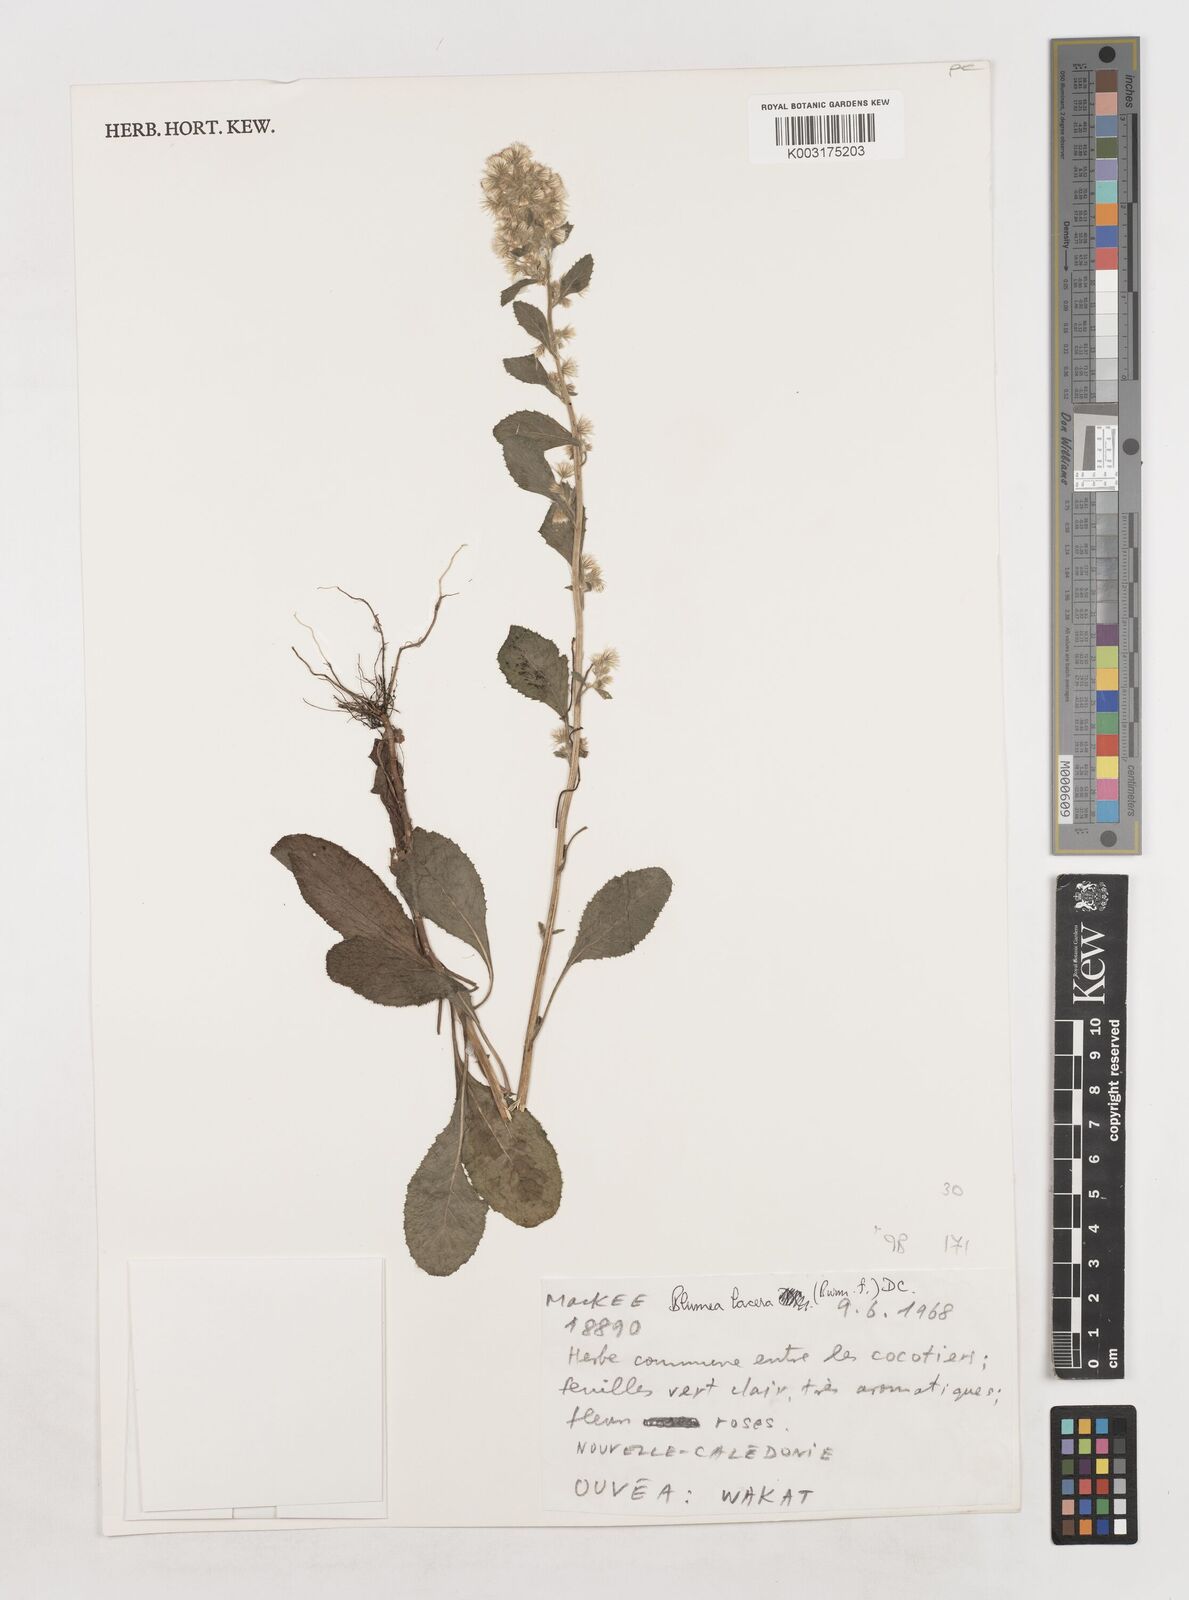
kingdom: Plantae
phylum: Tracheophyta
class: Magnoliopsida
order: Asterales
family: Asteraceae
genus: Blumea
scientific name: Blumea lacera
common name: Malay blumea
